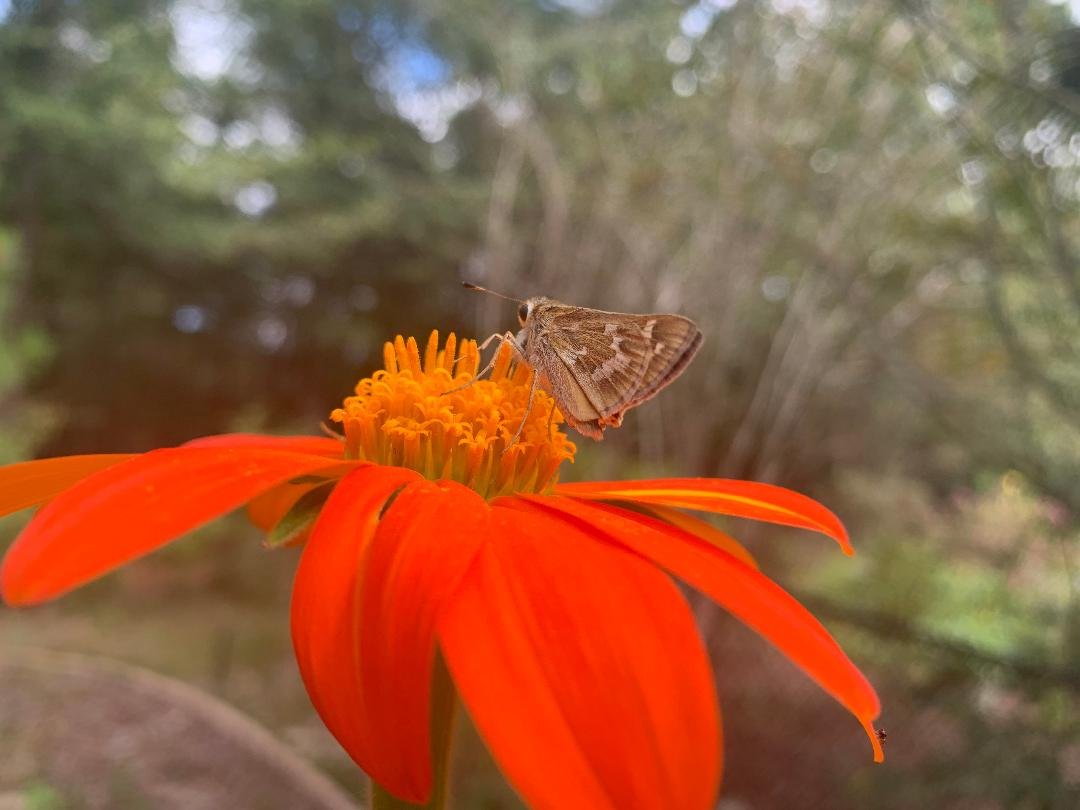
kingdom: Animalia
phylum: Arthropoda
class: Insecta
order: Lepidoptera
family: Hesperiidae
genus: Atalopedes
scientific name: Atalopedes campestris
